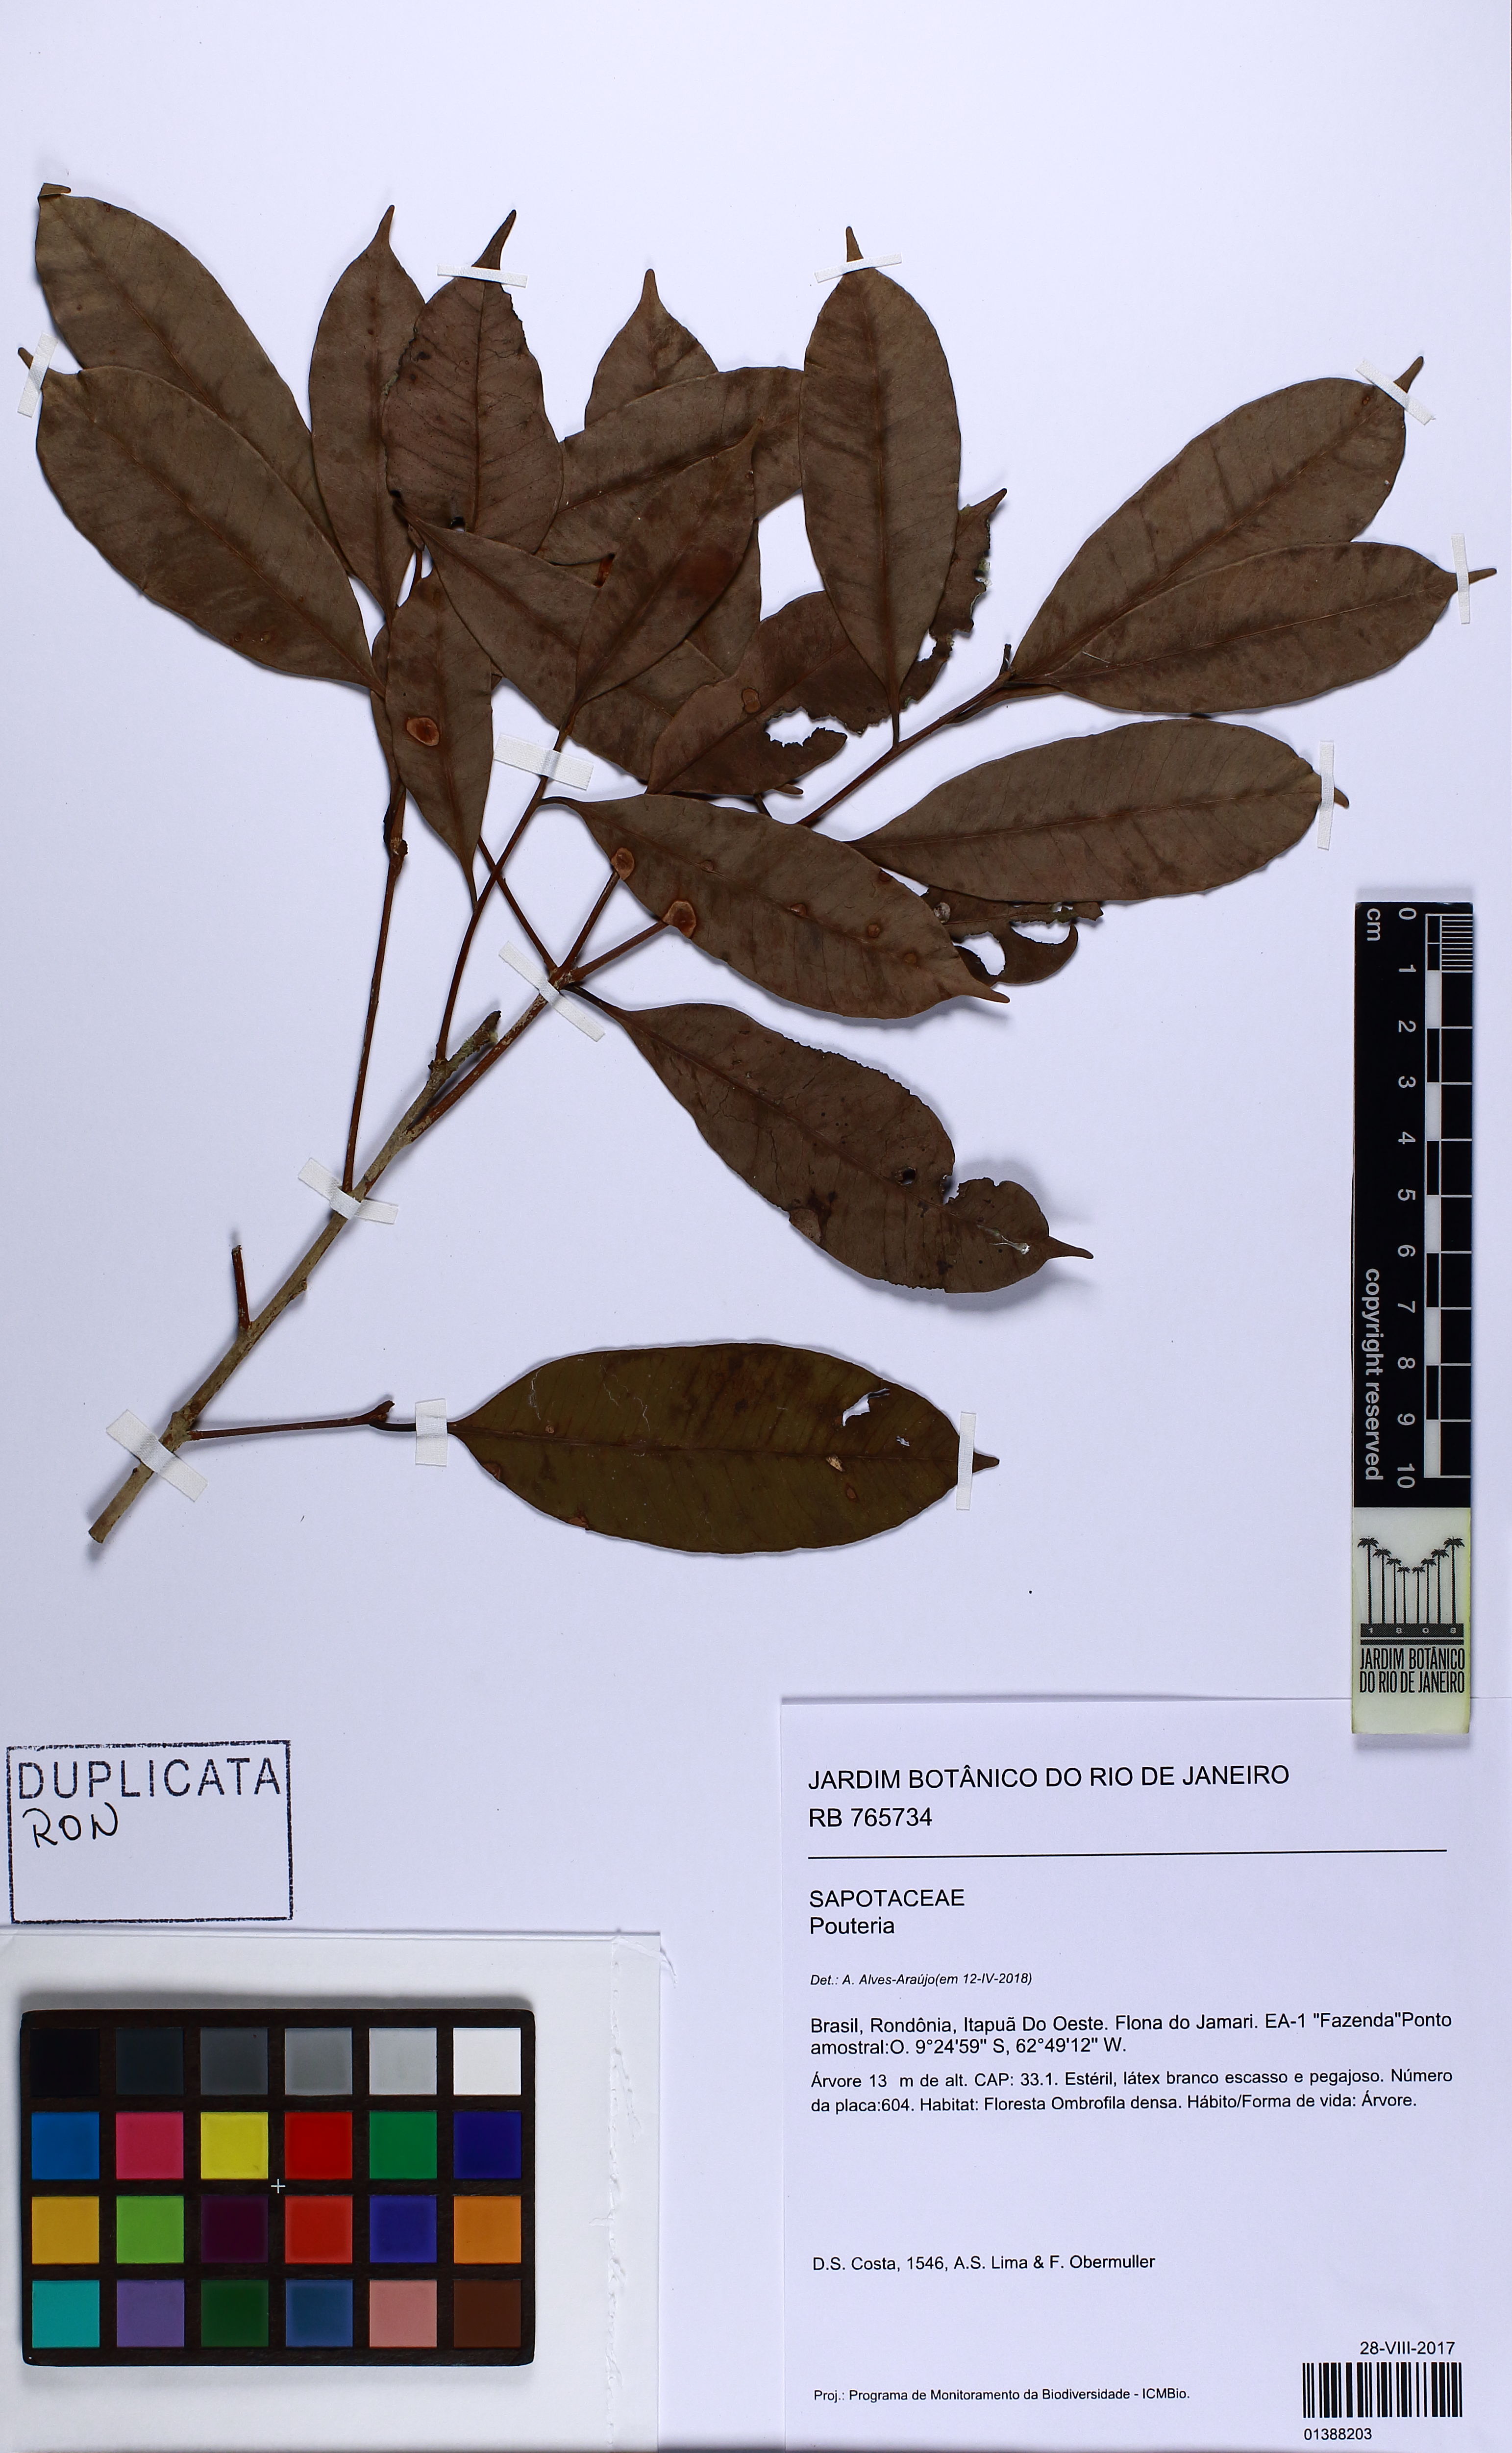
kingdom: Plantae
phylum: Tracheophyta
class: Magnoliopsida
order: Ericales
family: Sapotaceae
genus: Pouteria
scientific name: Pouteria
